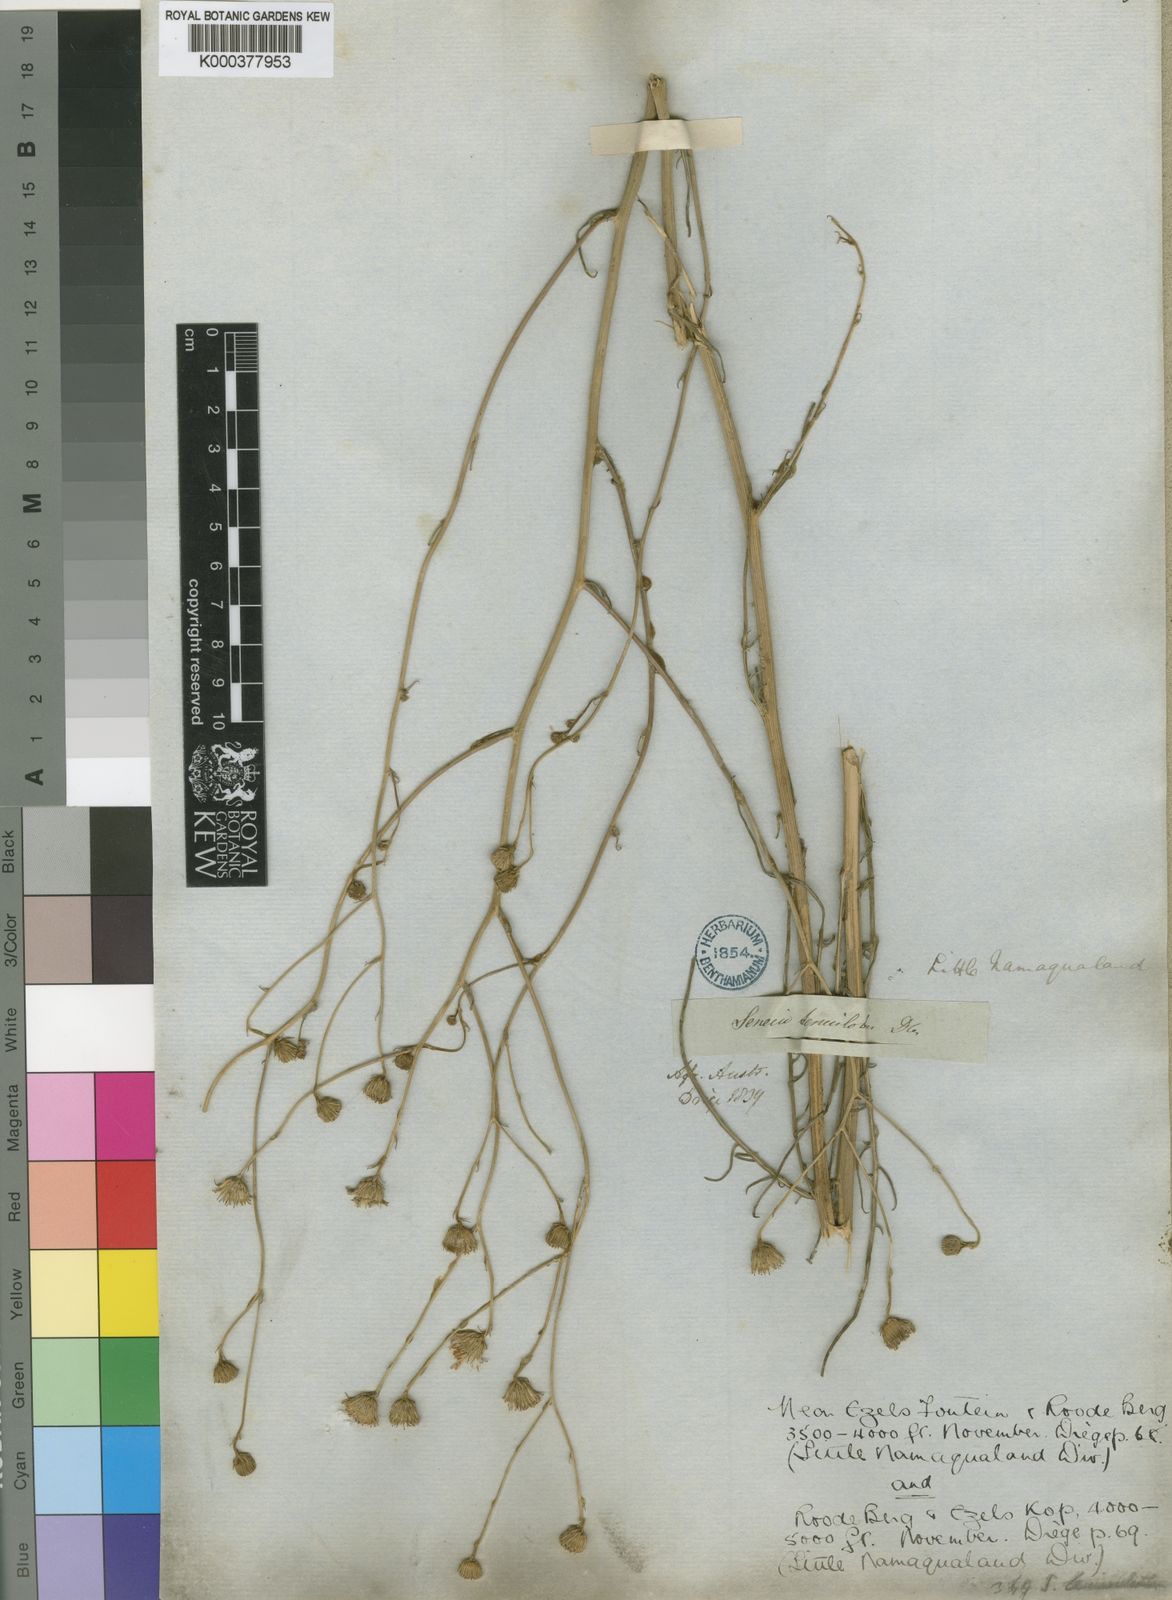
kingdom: Plantae
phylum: Tracheophyta
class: Magnoliopsida
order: Asterales
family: Asteraceae
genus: Senecio
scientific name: Senecio umbellatus
